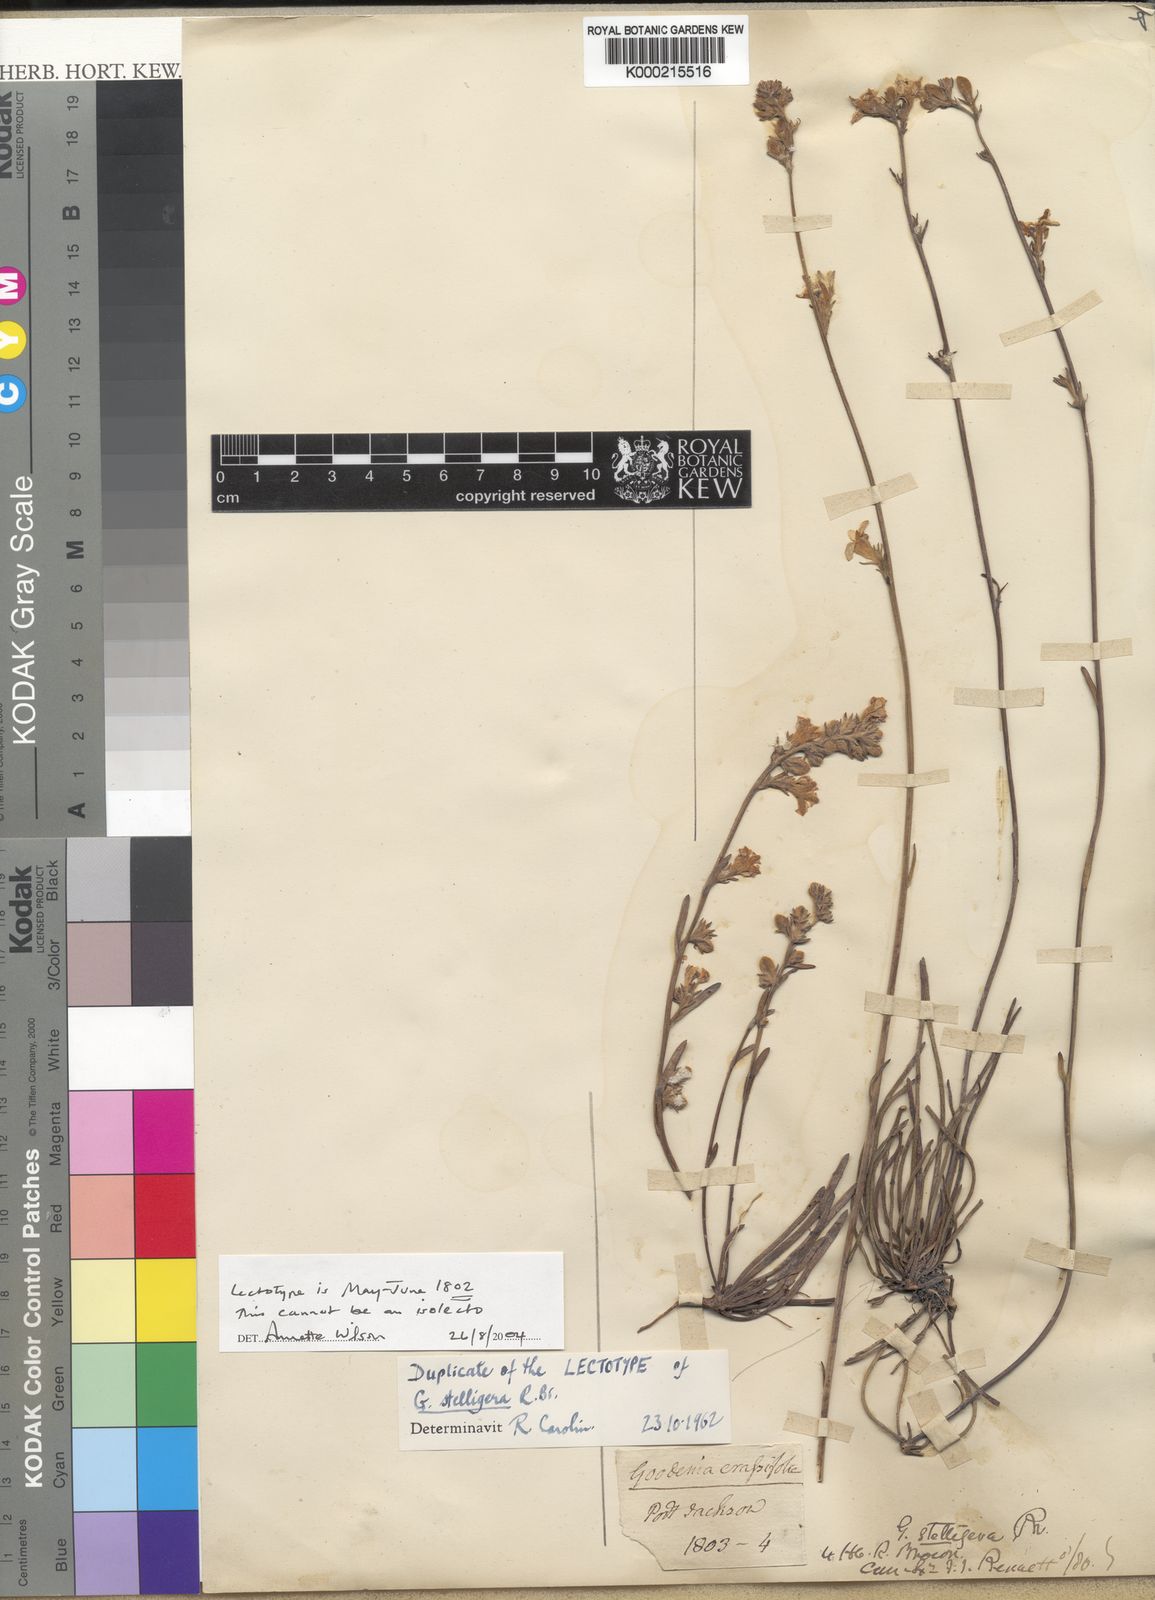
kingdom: Plantae
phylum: Tracheophyta
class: Magnoliopsida
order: Asterales
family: Goodeniaceae
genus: Goodenia
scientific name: Goodenia stelligera
